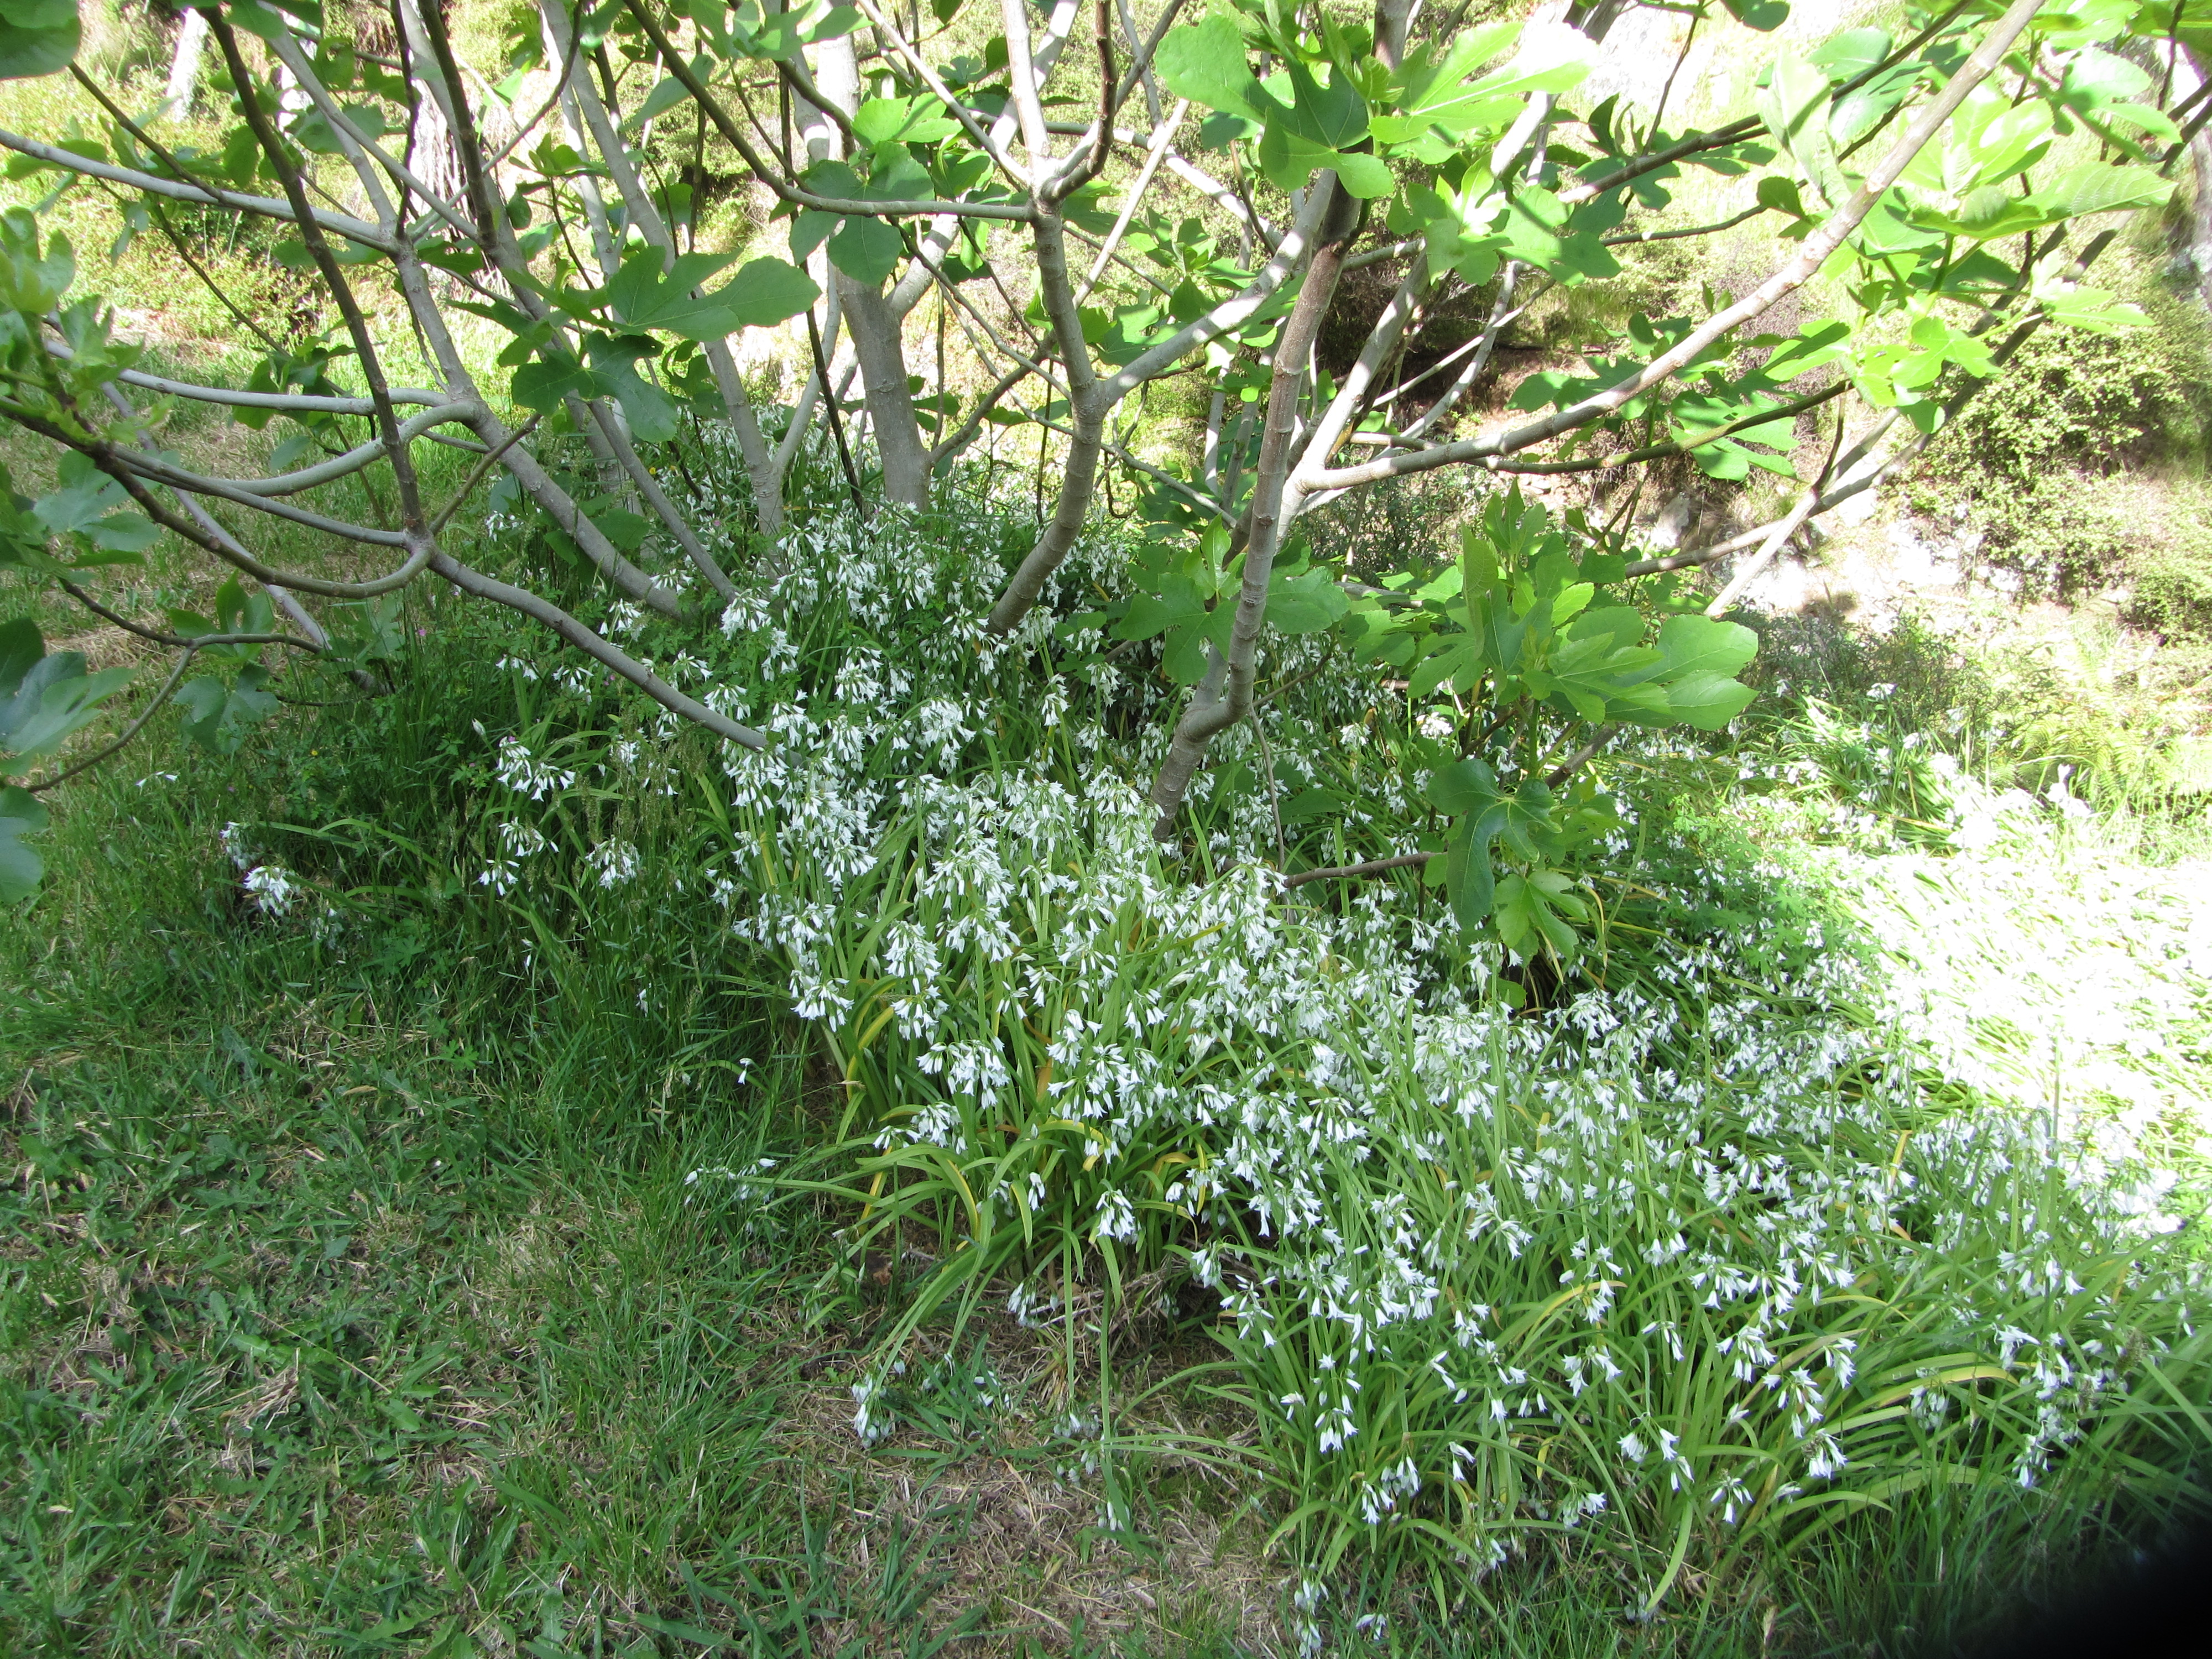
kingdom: Plantae
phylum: Tracheophyta
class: Liliopsida
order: Asparagales
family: Amaryllidaceae
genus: Allium
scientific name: Allium triquetrum
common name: Three-cornered garlic
